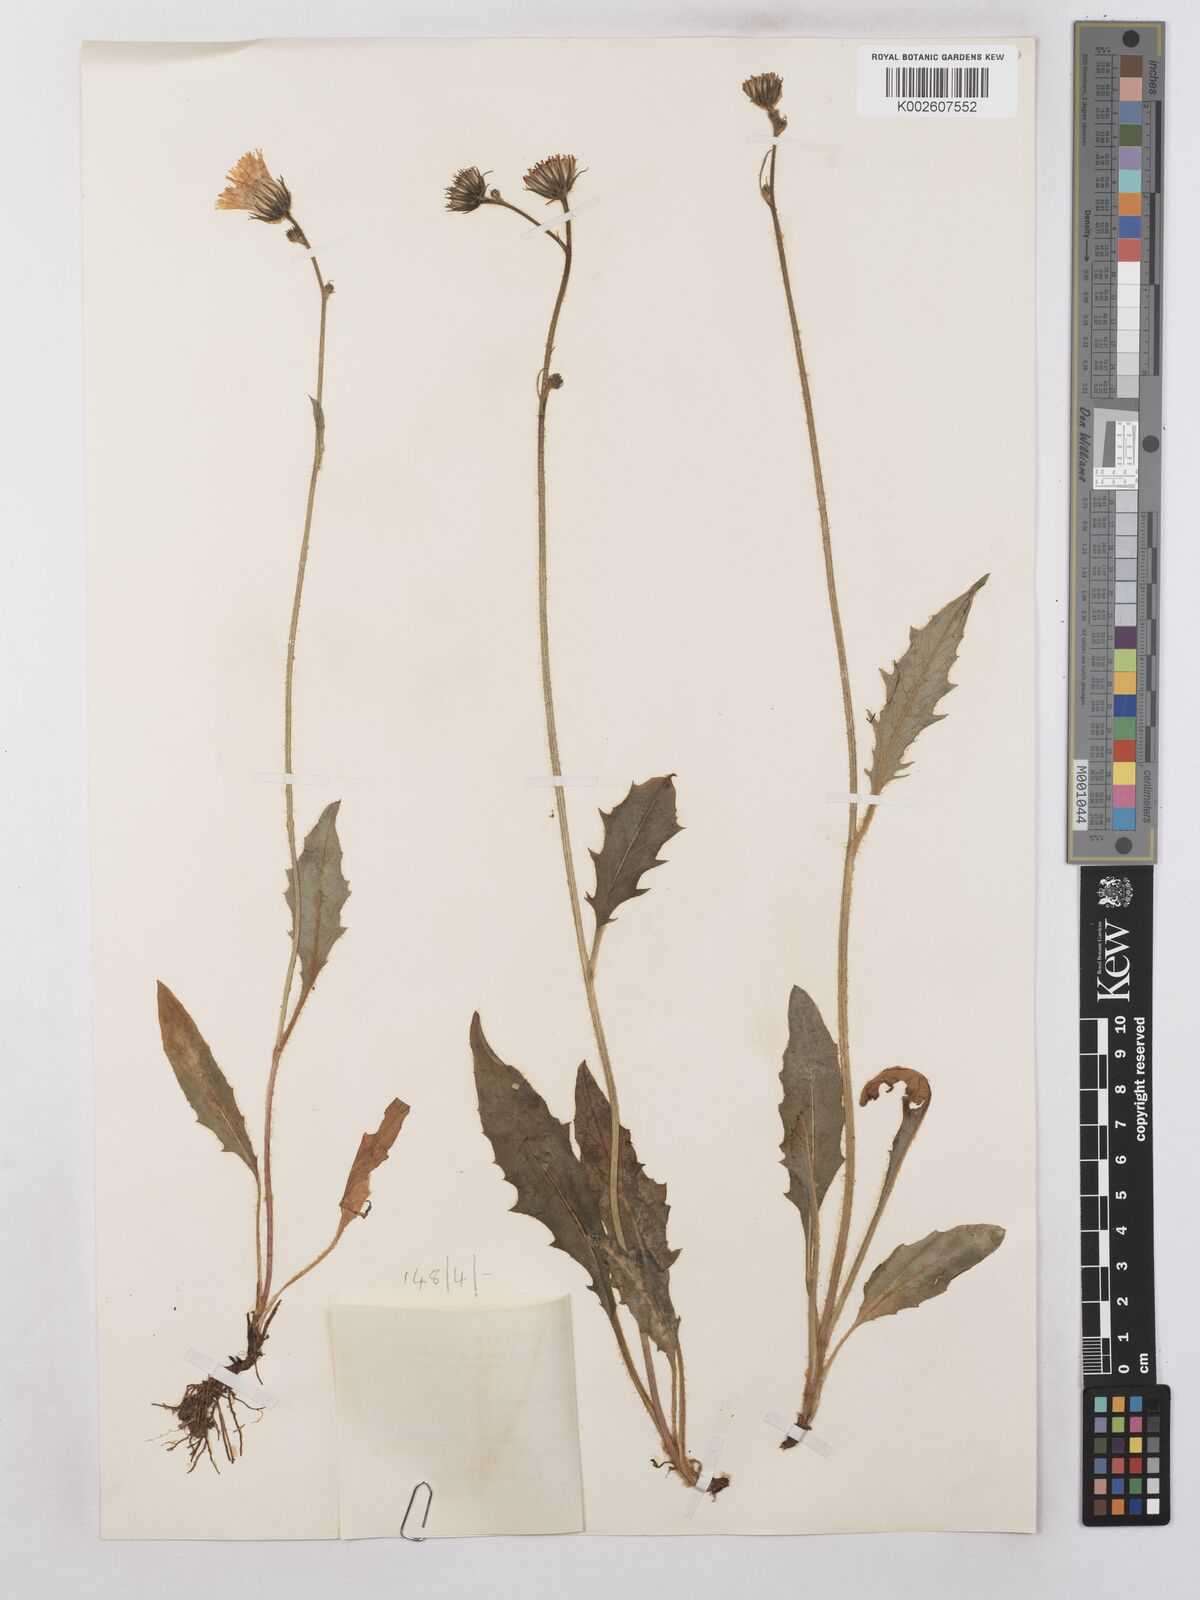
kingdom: Plantae
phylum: Tracheophyta
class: Magnoliopsida
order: Asterales
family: Asteraceae
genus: Hieracium
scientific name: Hieracium subramosum
